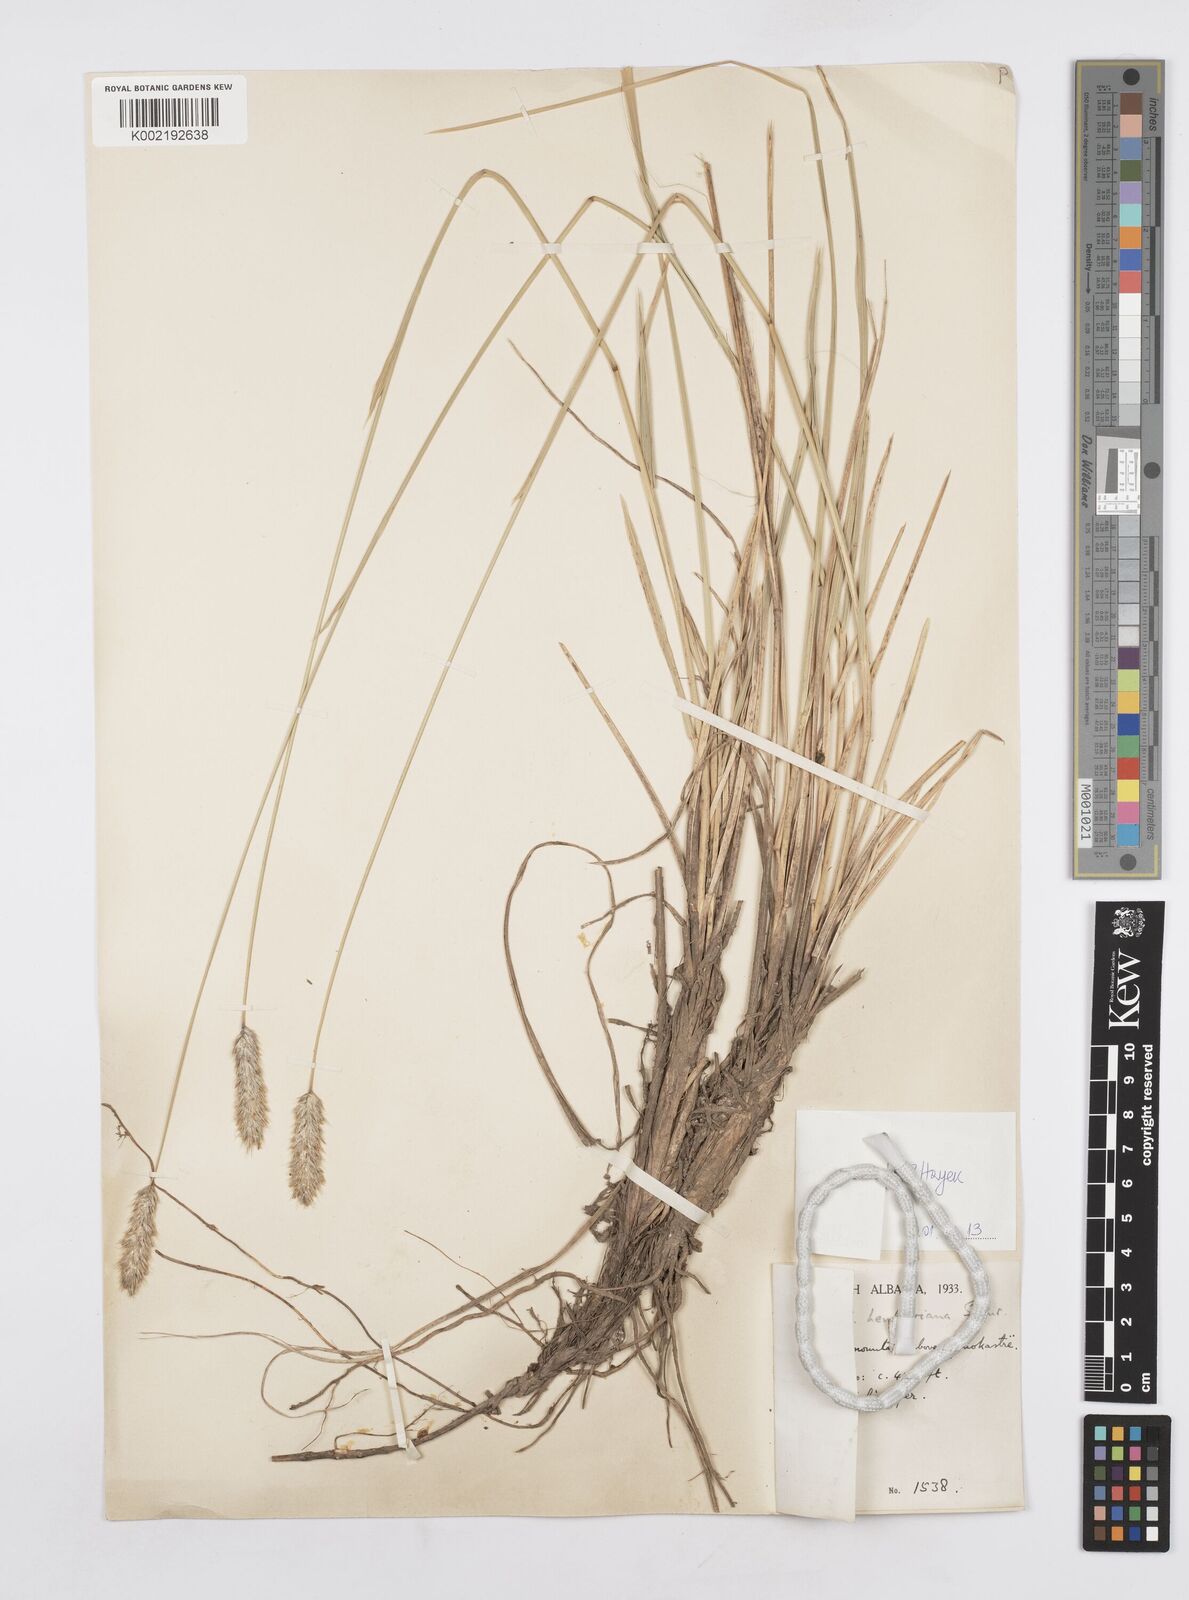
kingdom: Plantae
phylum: Tracheophyta
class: Liliopsida
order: Poales
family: Poaceae
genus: Sesleria
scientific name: Sesleria wettsteinii
